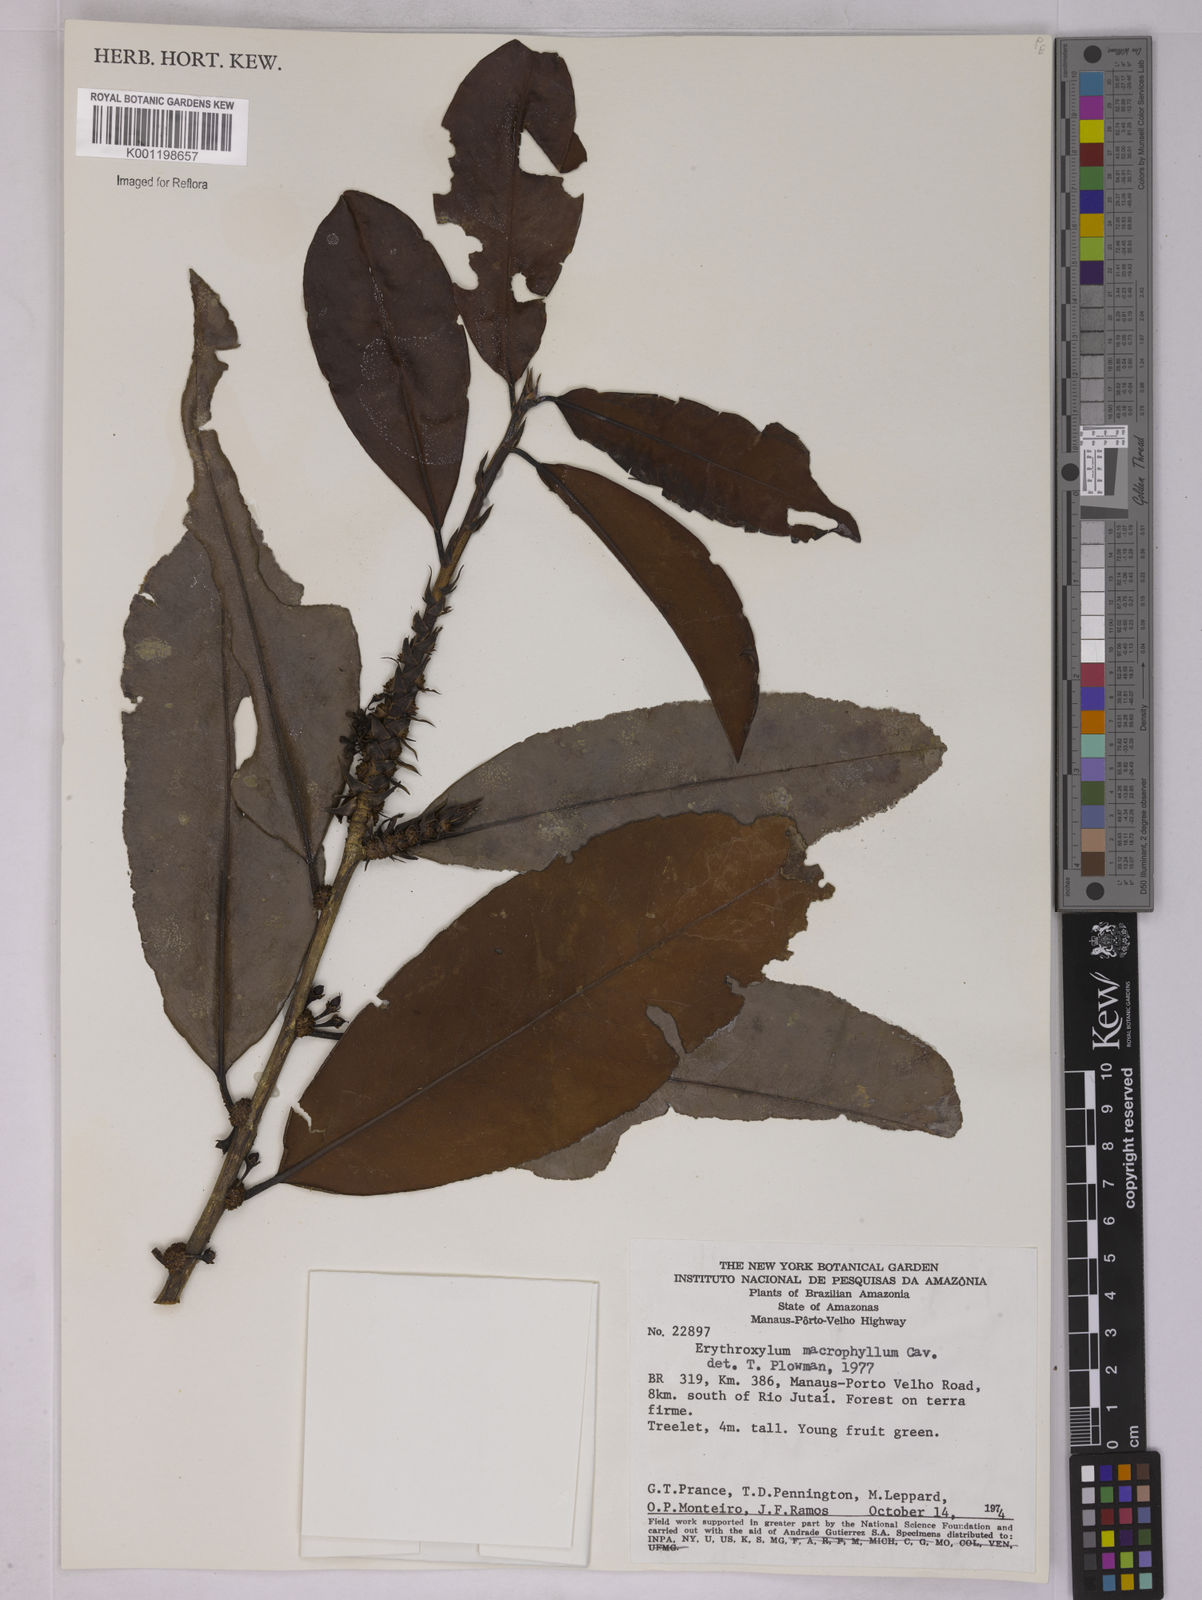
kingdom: Plantae
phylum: Tracheophyta
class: Magnoliopsida
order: Malpighiales
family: Erythroxylaceae
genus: Erythroxylum
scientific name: Erythroxylum macrophyllum
